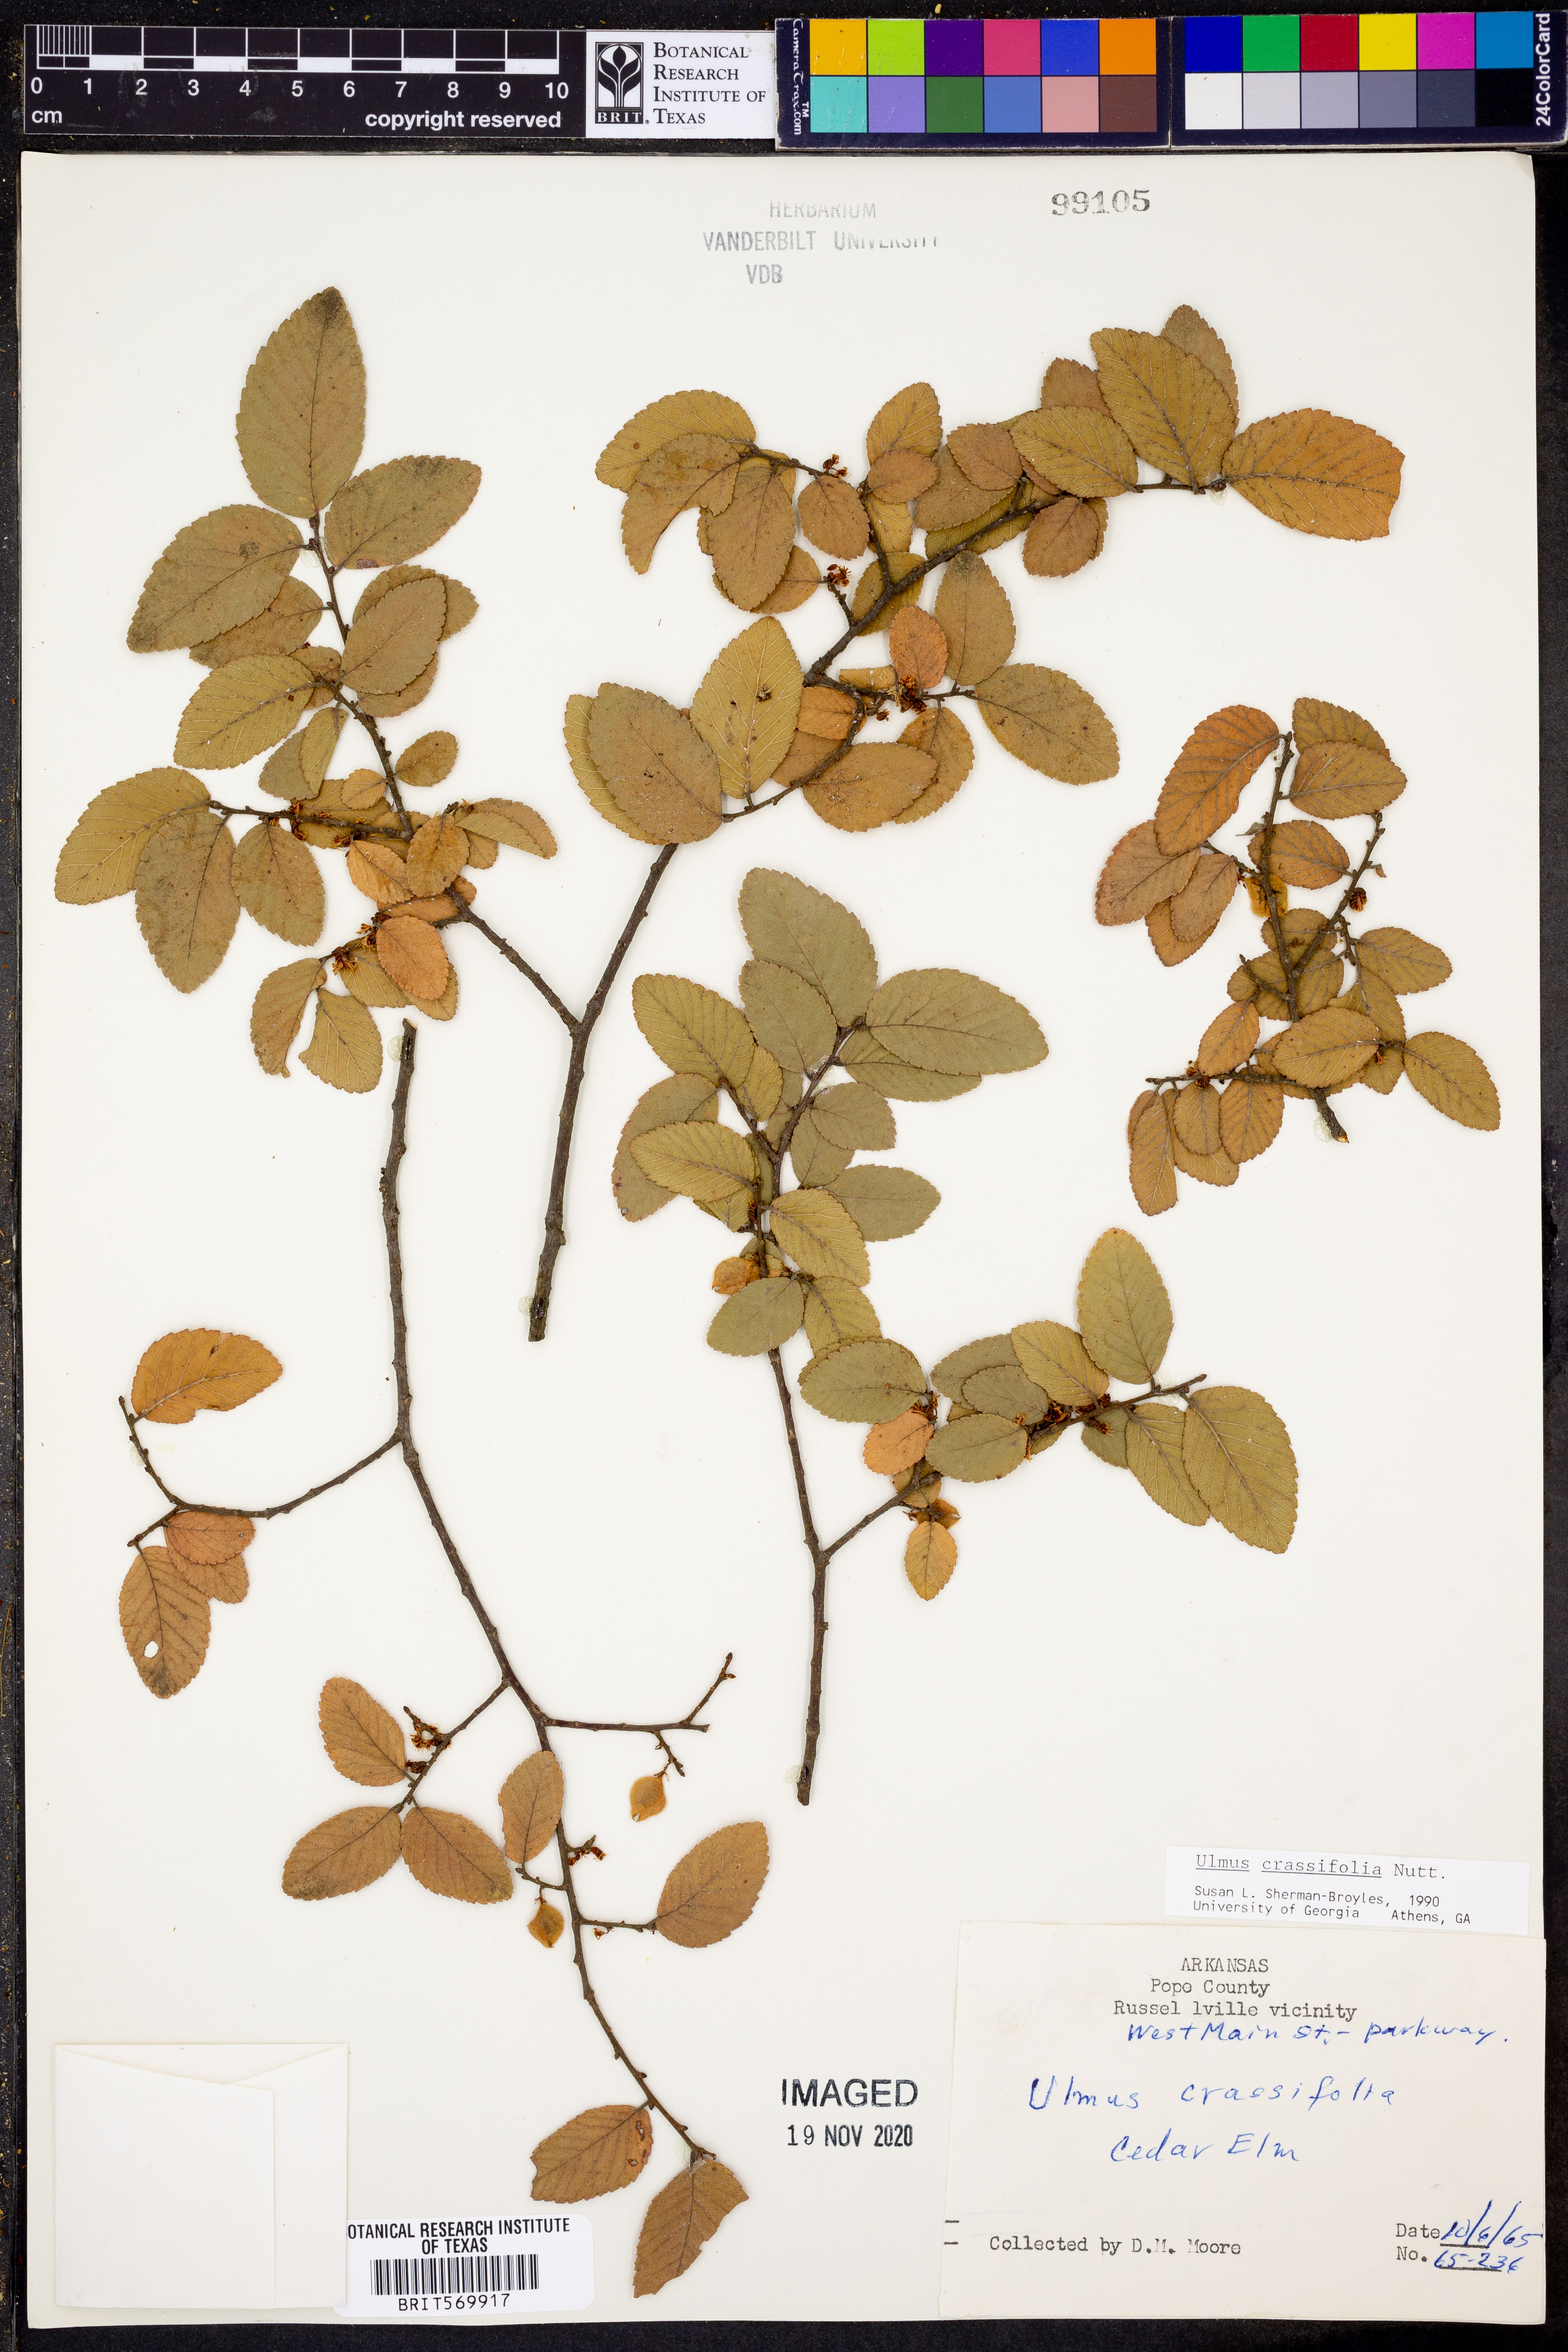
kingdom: Plantae
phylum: Tracheophyta
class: Magnoliopsida
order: Rosales
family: Ulmaceae
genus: Ulmus
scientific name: Ulmus crassifolia
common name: Basket elm
